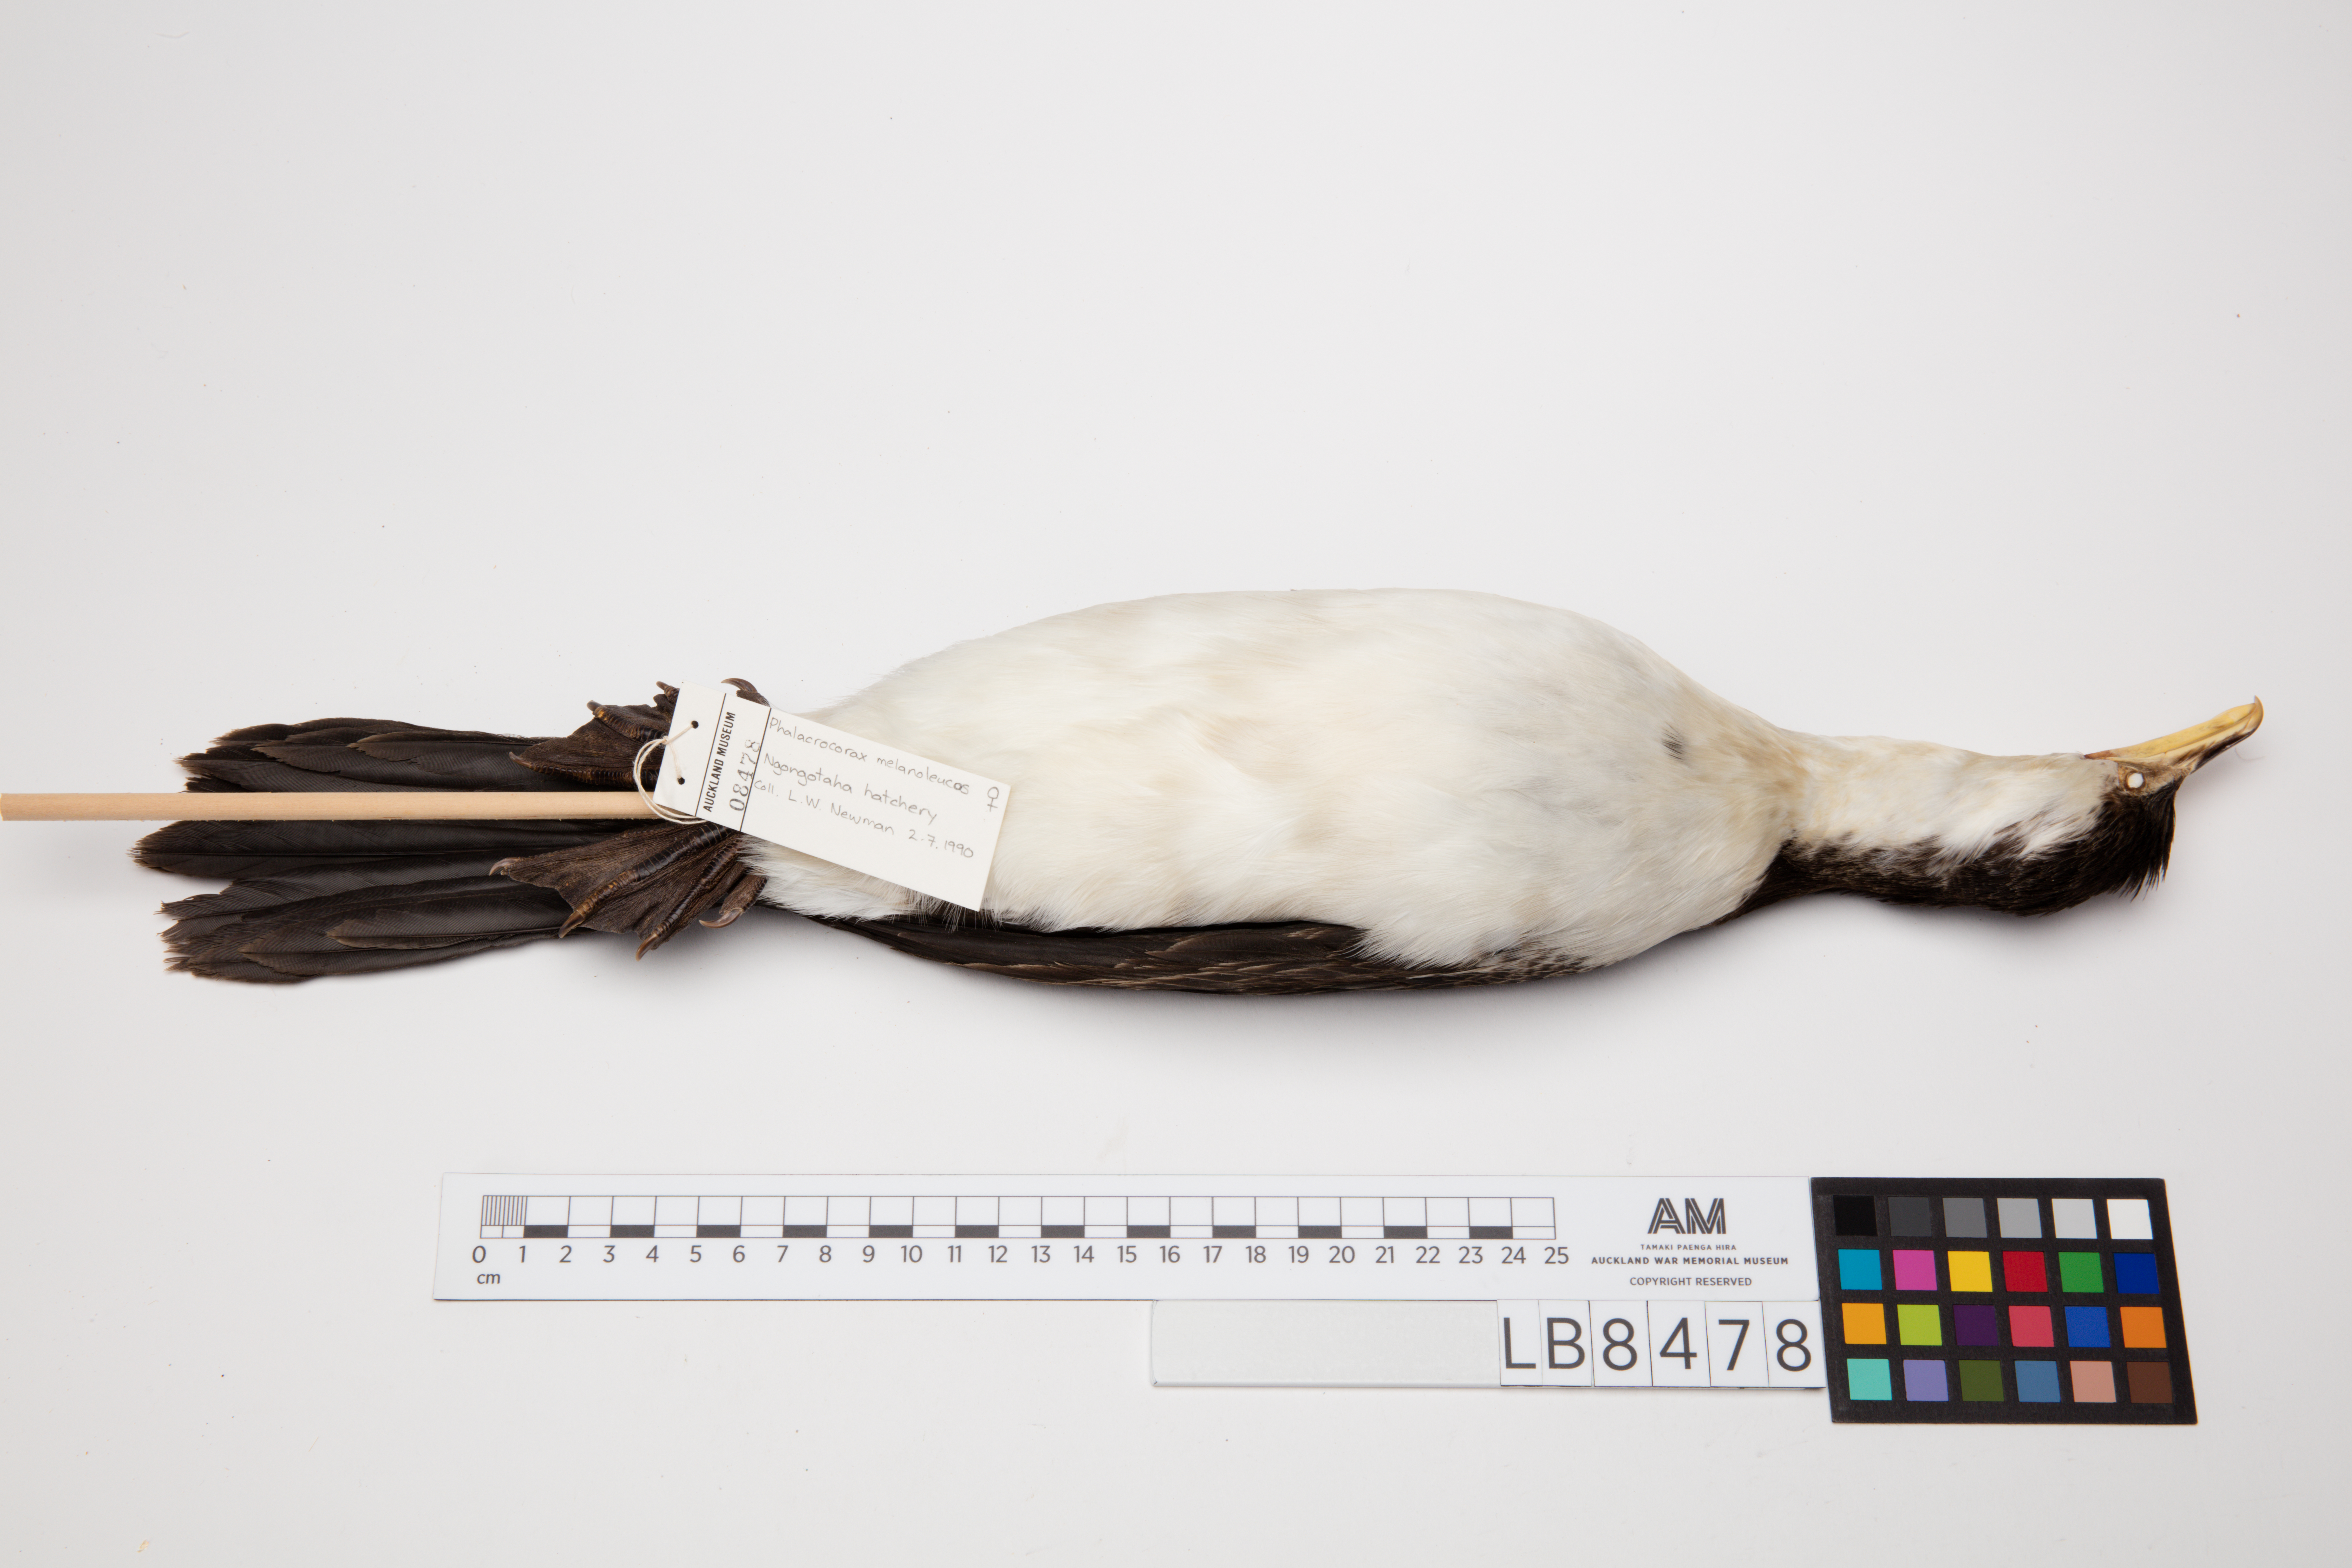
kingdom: Animalia
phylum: Chordata
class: Aves
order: Suliformes
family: Phalacrocoracidae
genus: Microcarbo
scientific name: Microcarbo melanoleucos
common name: Little pied cormorant
